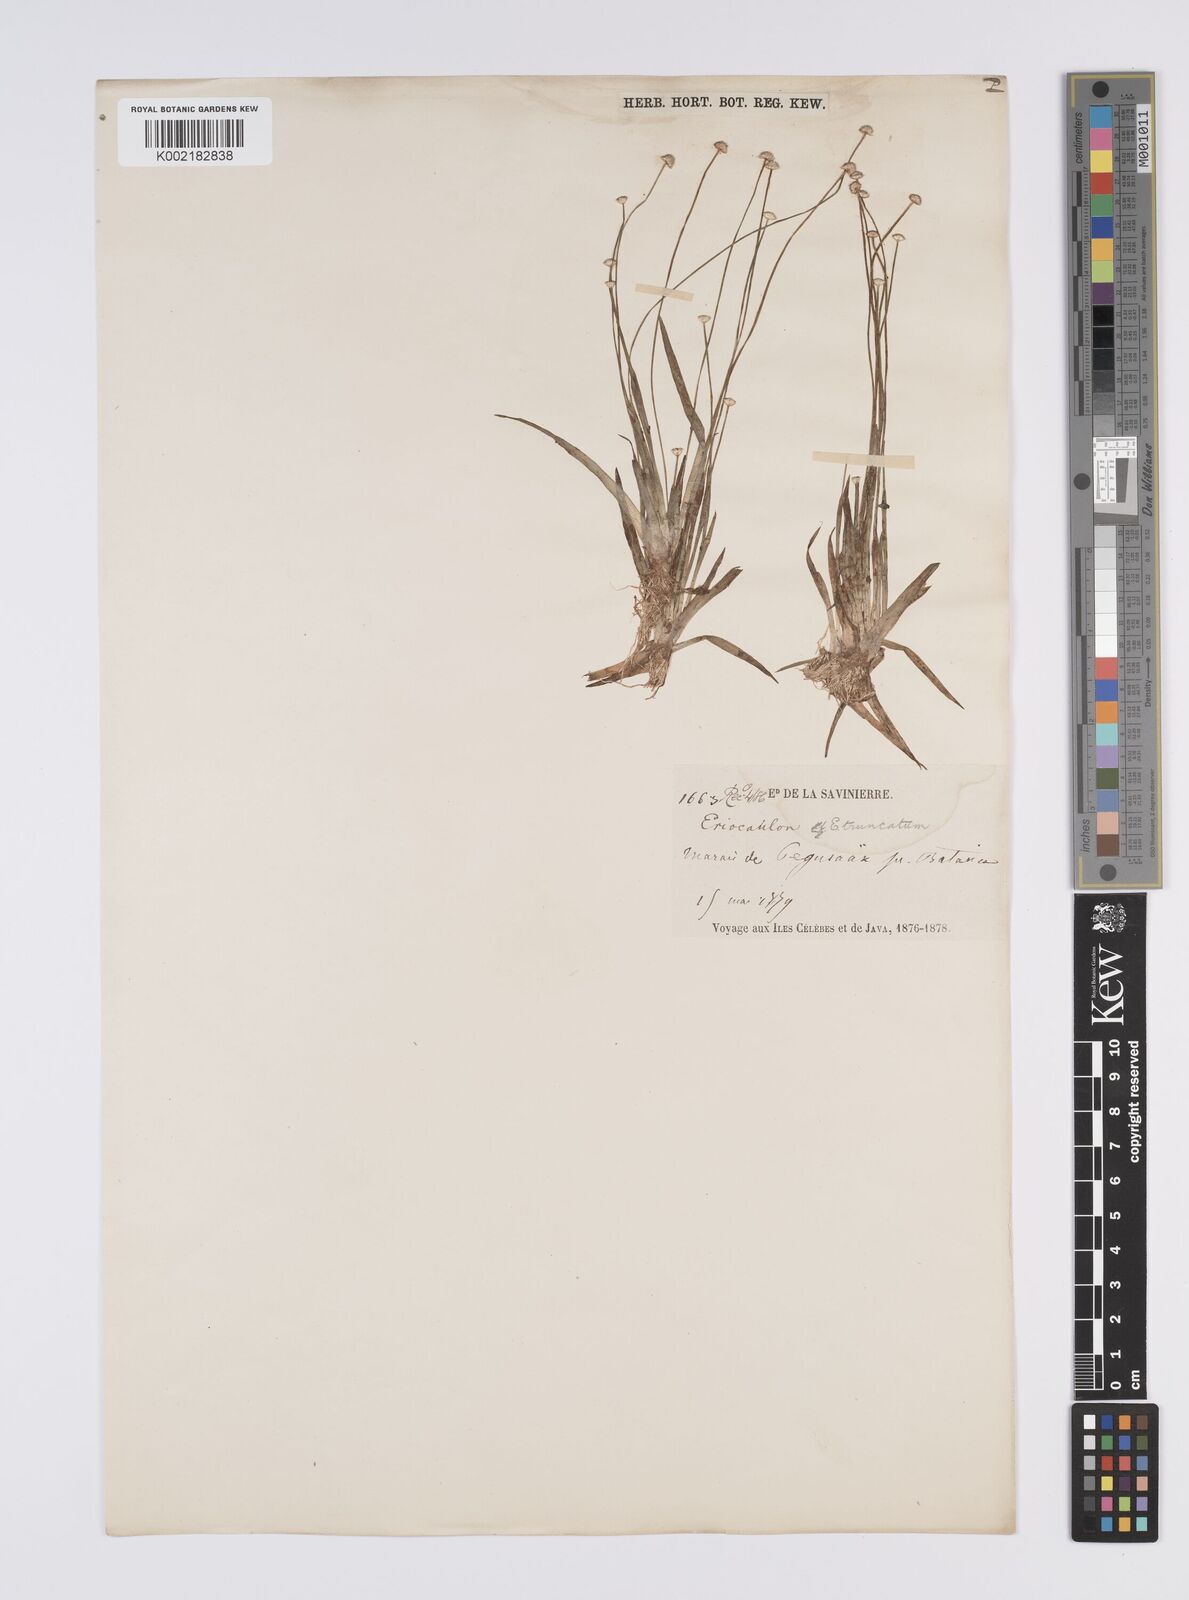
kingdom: Plantae
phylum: Tracheophyta
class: Liliopsida
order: Poales
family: Eriocaulaceae
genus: Eriocaulon
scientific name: Eriocaulon truncatum
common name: Short pipe-wort
